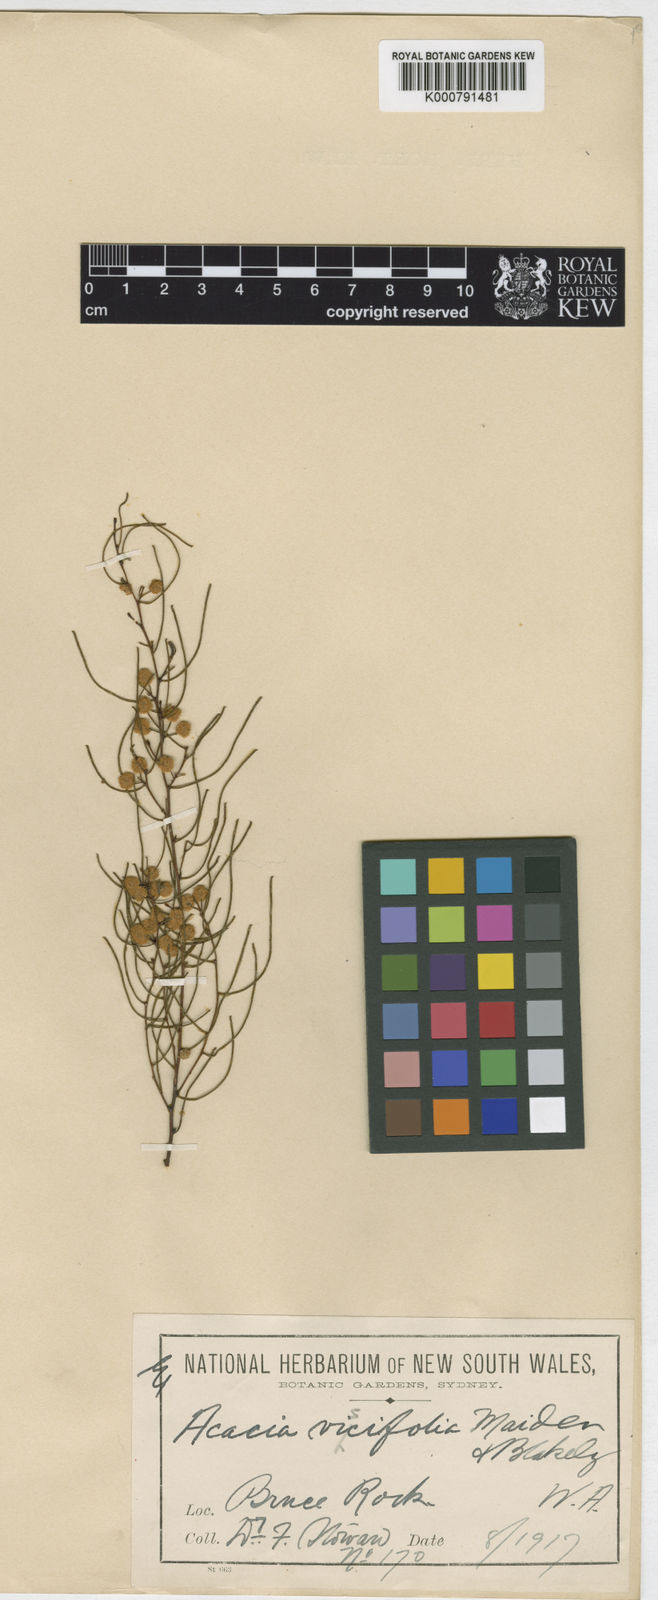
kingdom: Plantae
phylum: Tracheophyta
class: Magnoliopsida
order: Fabales
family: Fabaceae
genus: Acacia
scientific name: Acacia viscifolia
